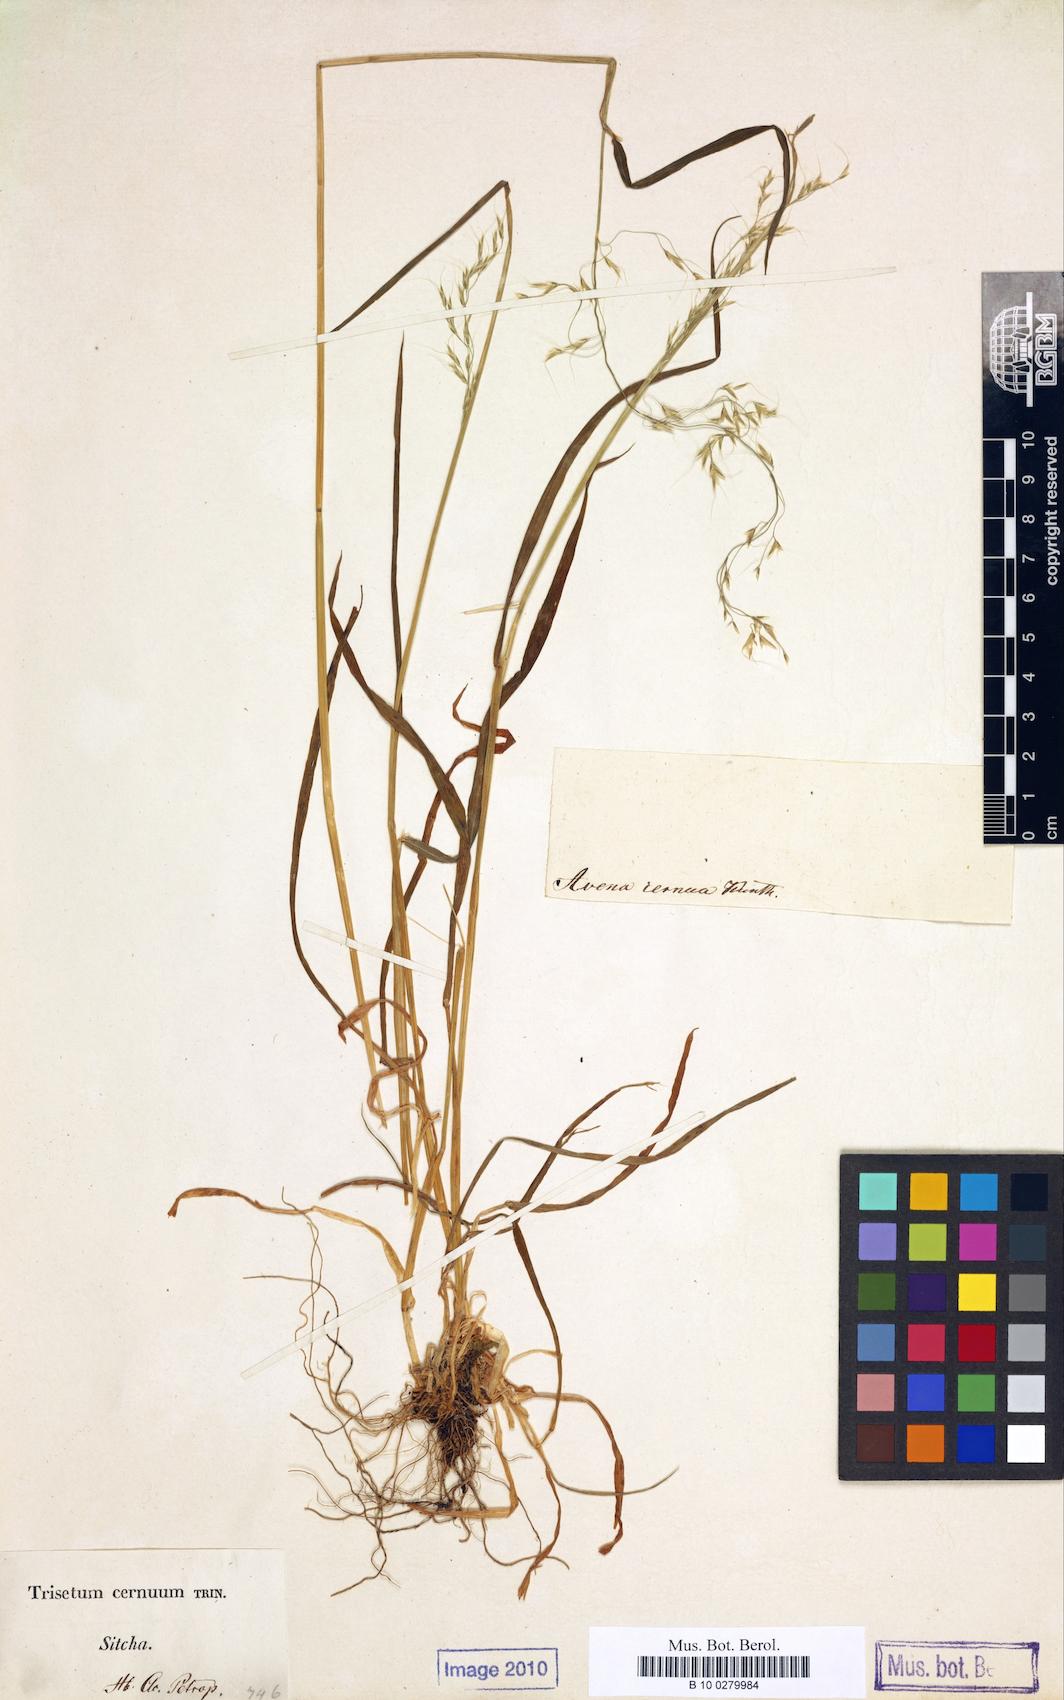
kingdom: Plantae
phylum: Tracheophyta
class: Liliopsida
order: Poales
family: Poaceae
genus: Graphephorum
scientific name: Graphephorum cernuum
